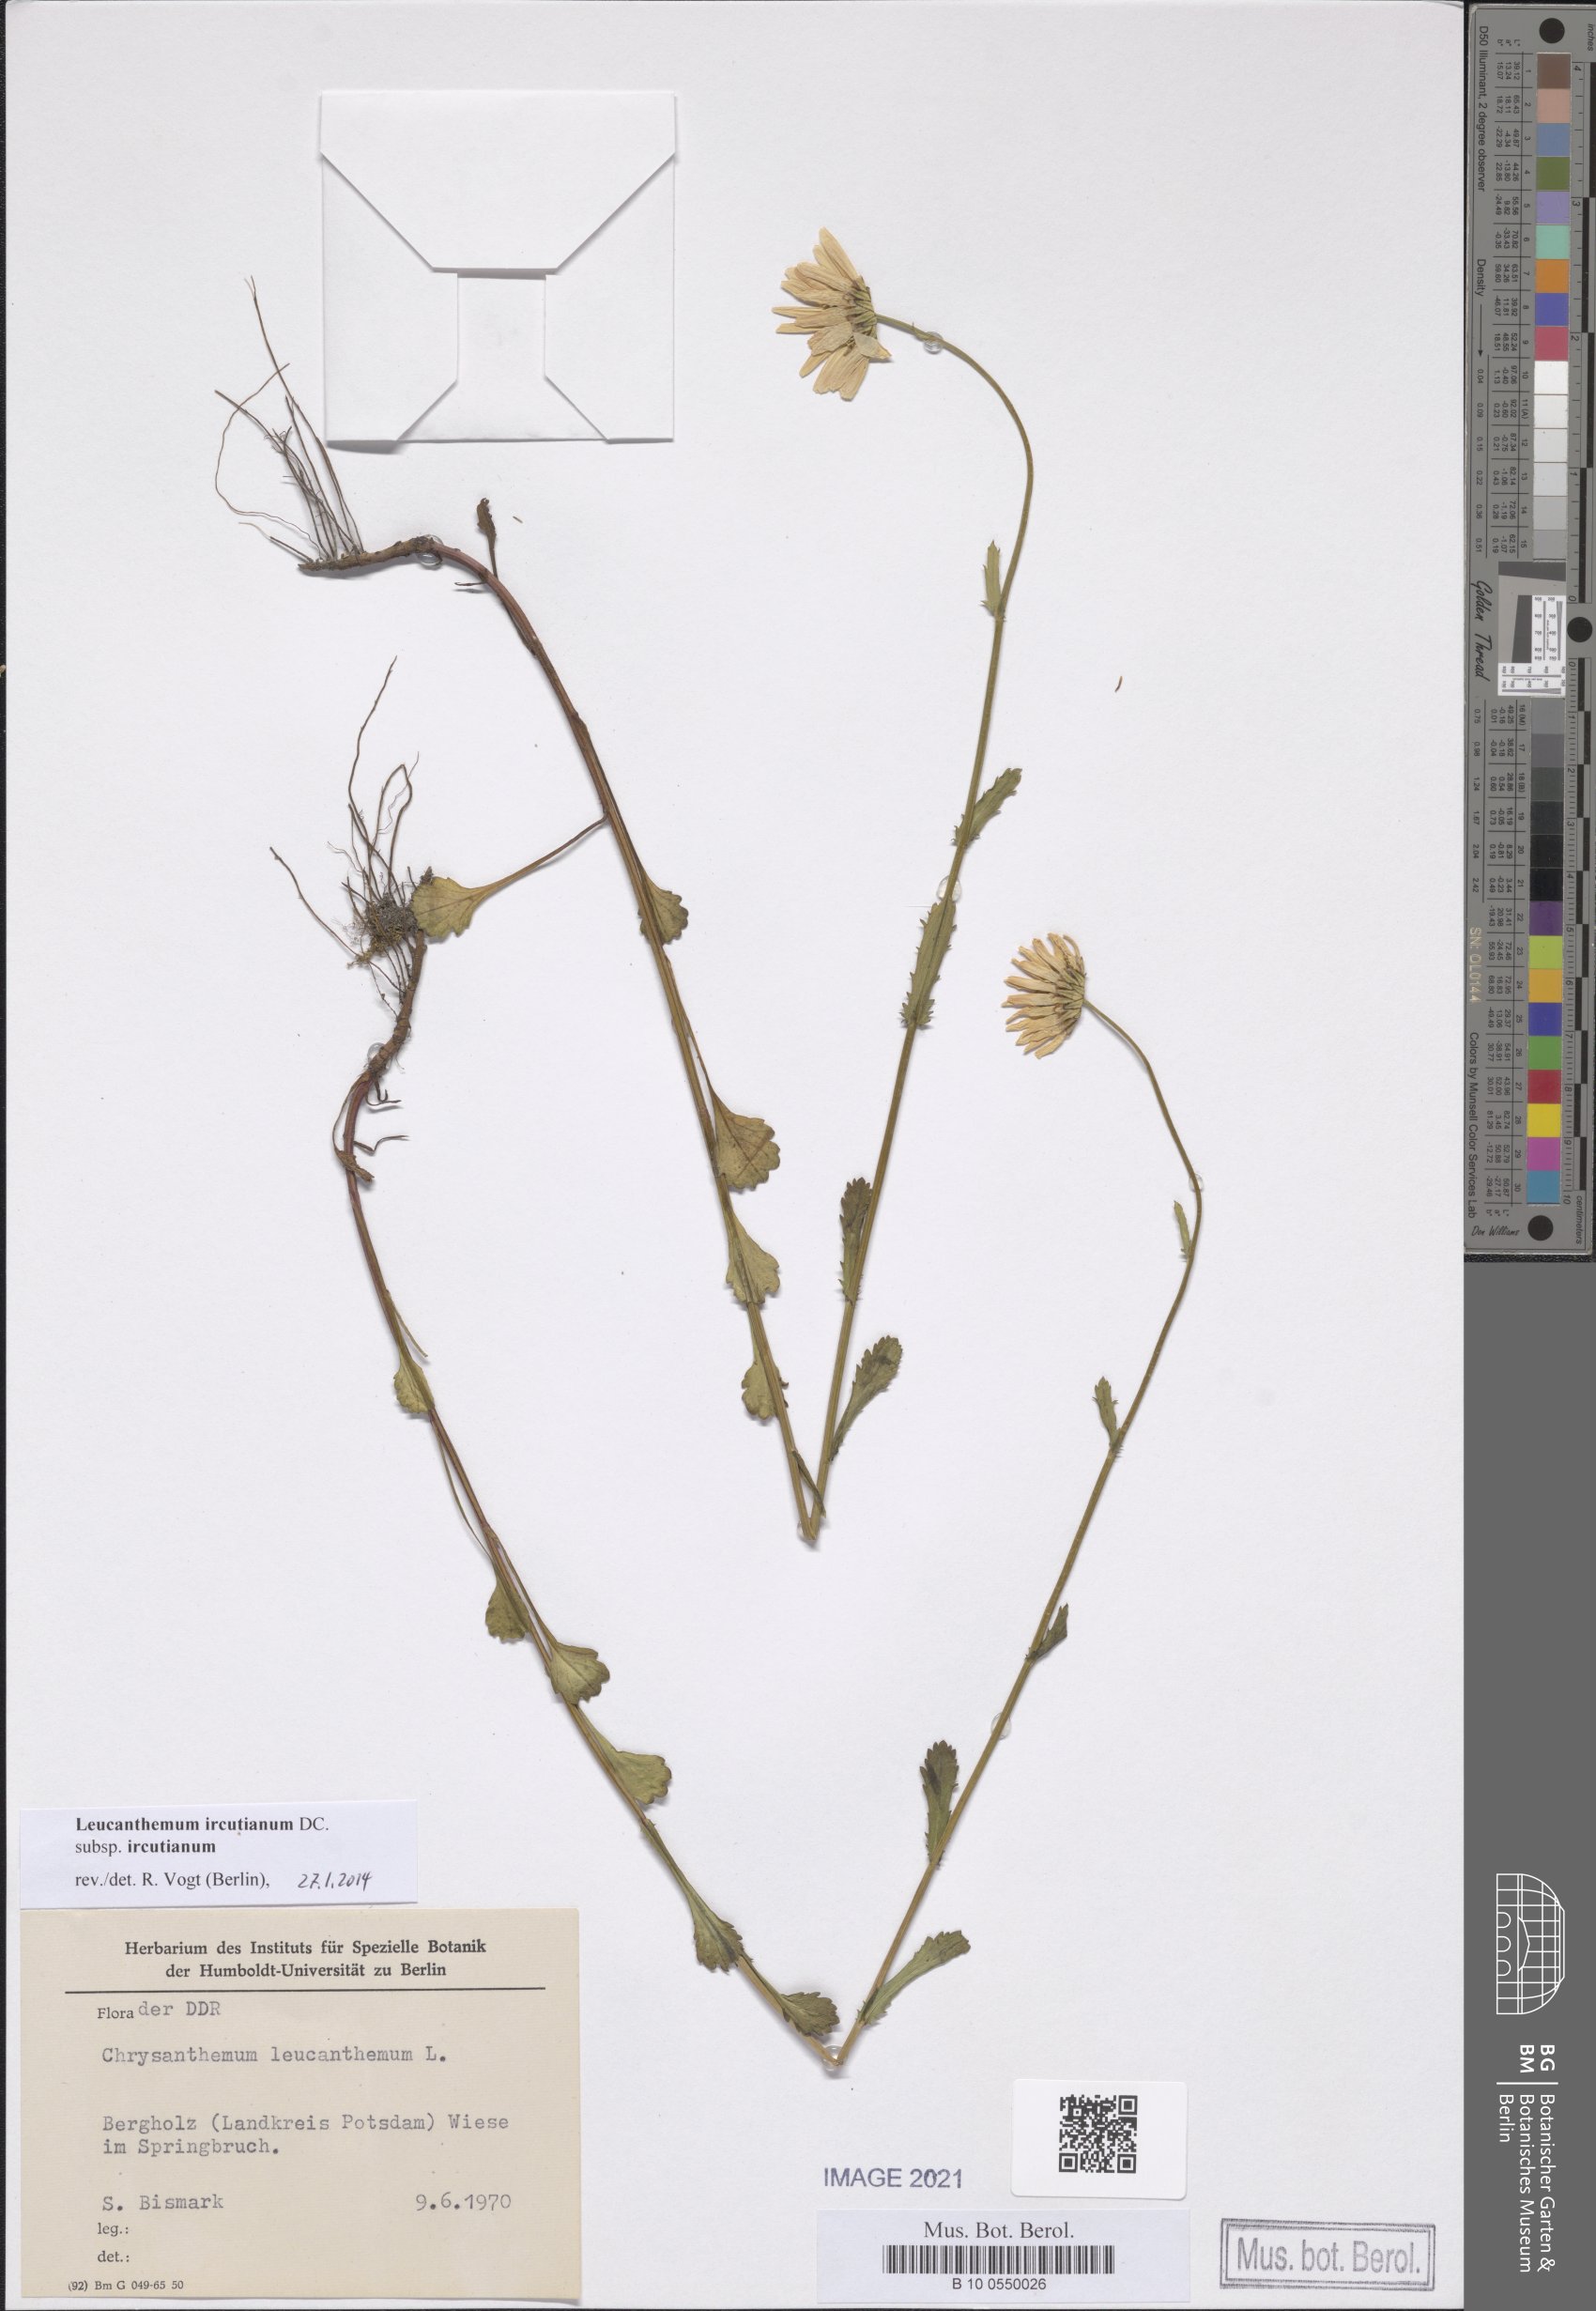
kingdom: Plantae
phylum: Tracheophyta
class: Magnoliopsida
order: Asterales
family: Asteraceae
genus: Leucanthemum
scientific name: Leucanthemum ircutianum
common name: Daisy
